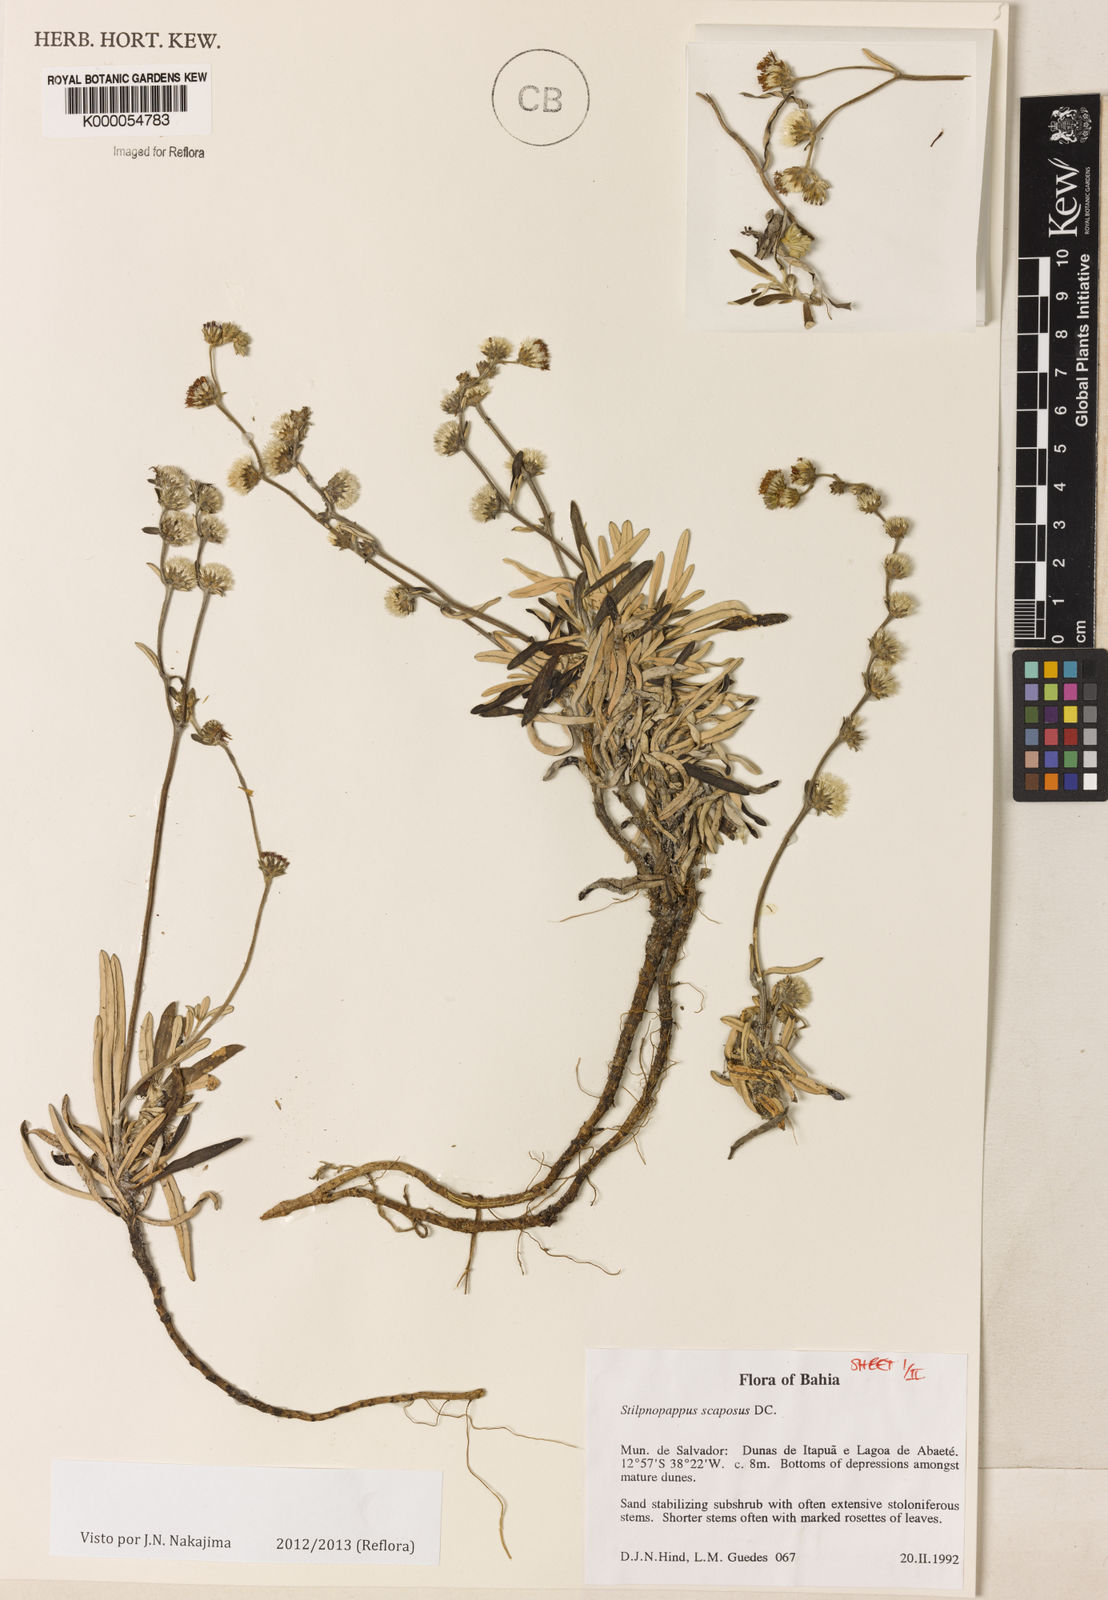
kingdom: Plantae
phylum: Tracheophyta
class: Magnoliopsida
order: Asterales
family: Asteraceae
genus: Stilpnopappus
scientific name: Stilpnopappus scaposus
